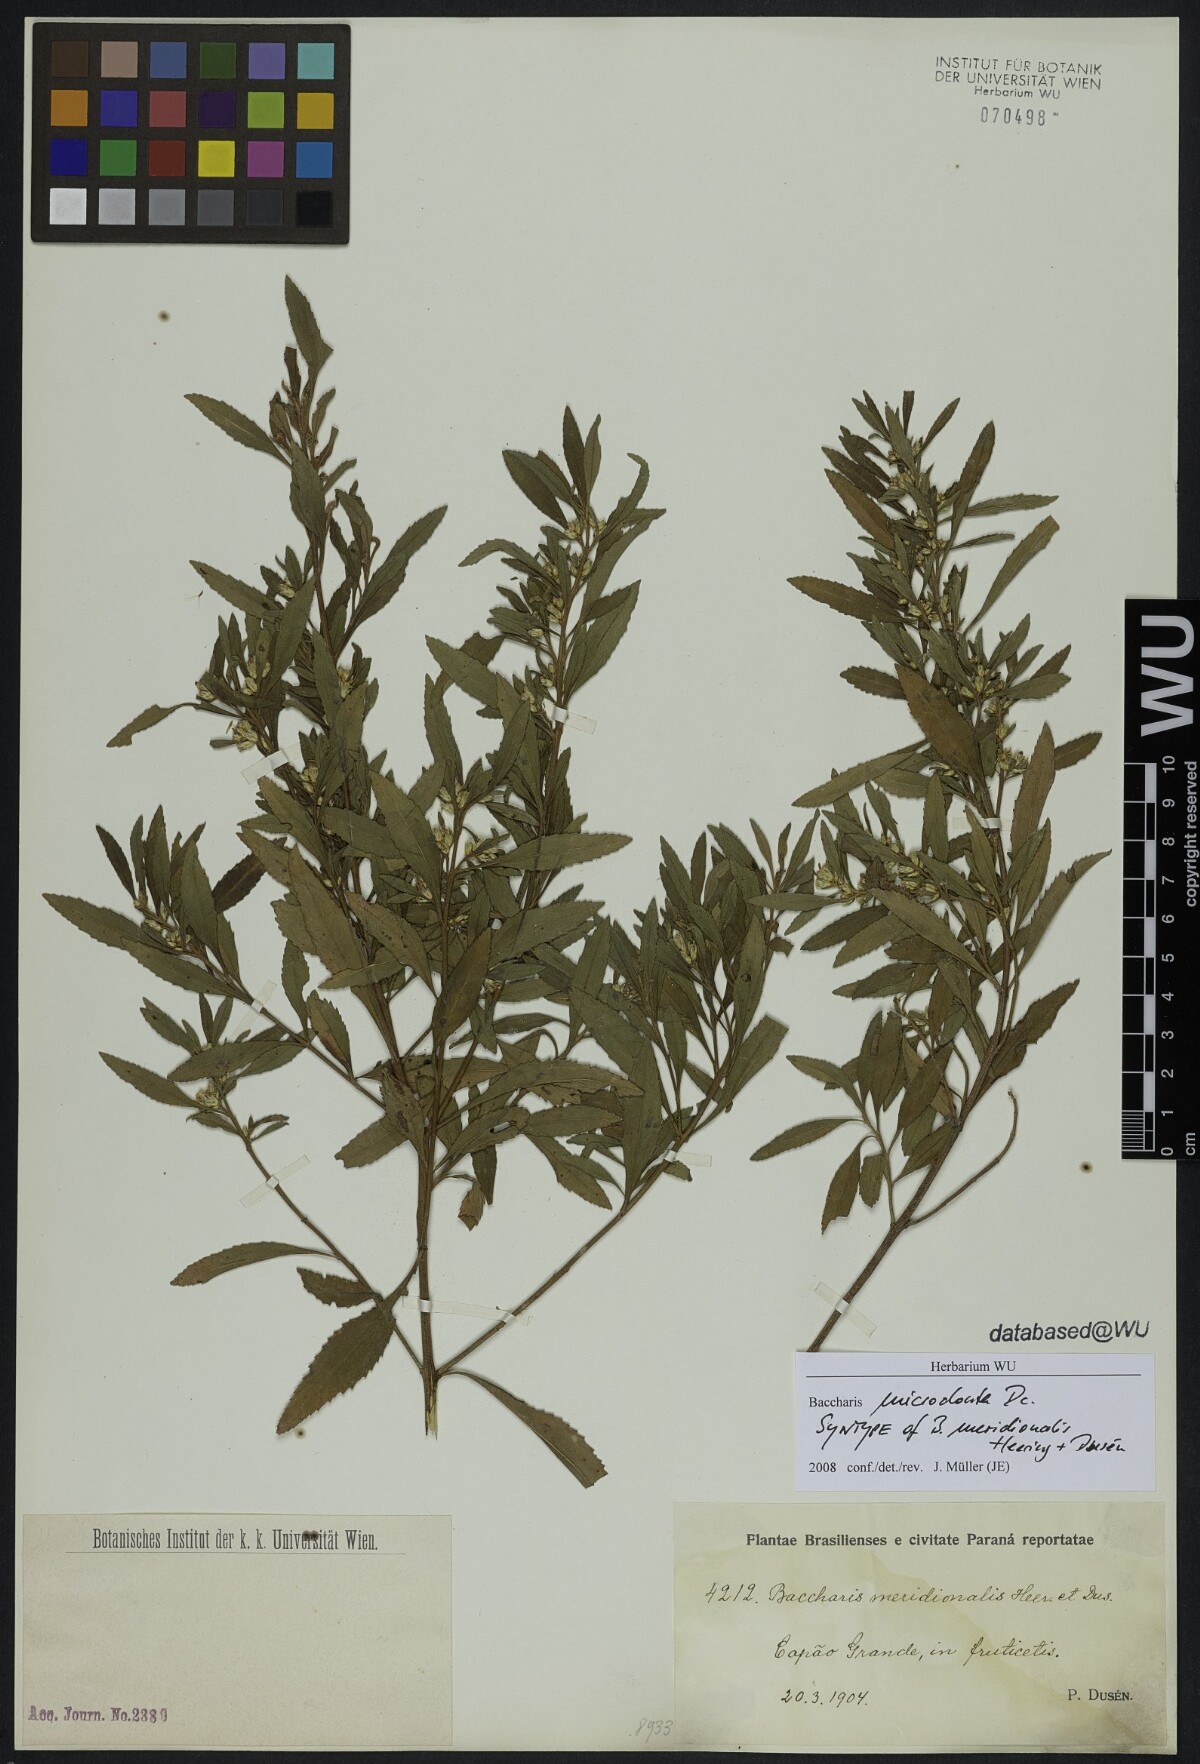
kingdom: Plantae
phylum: Tracheophyta
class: Magnoliopsida
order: Asterales
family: Asteraceae
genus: Baccharis
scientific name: Baccharis microdonta
